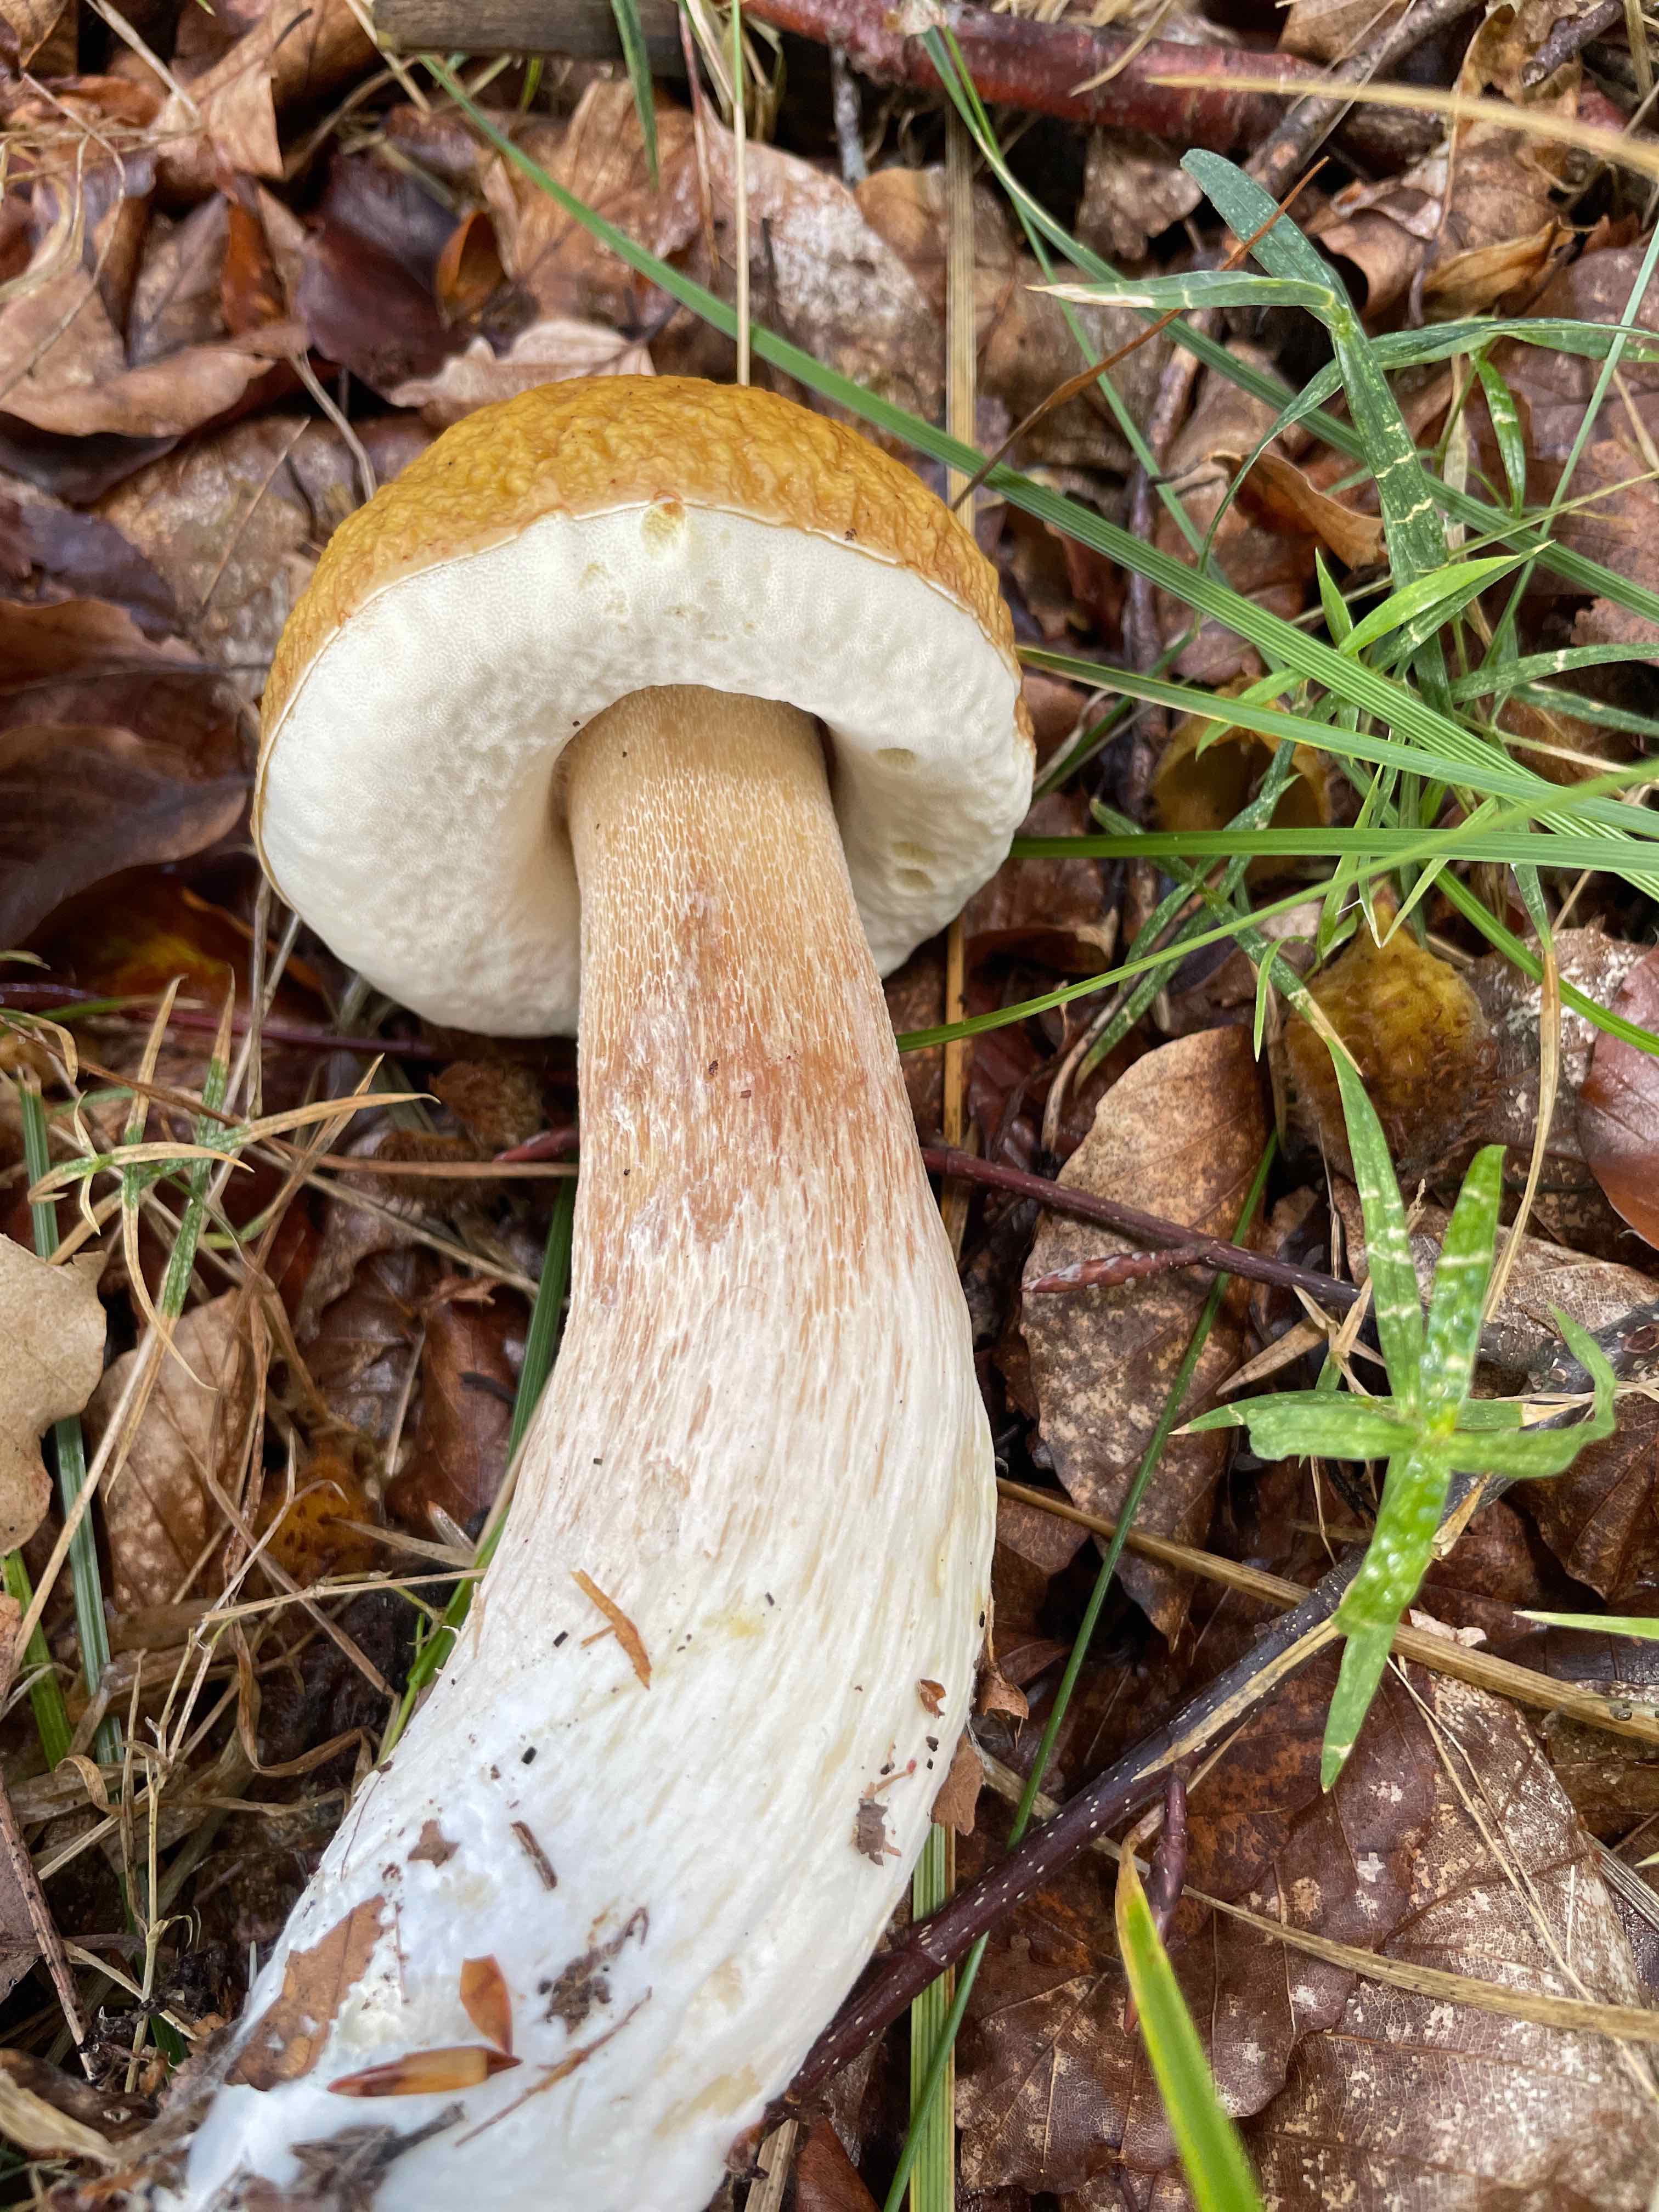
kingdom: Fungi
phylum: Basidiomycota
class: Agaricomycetes
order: Boletales
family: Boletaceae
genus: Boletus
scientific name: Boletus edulis
